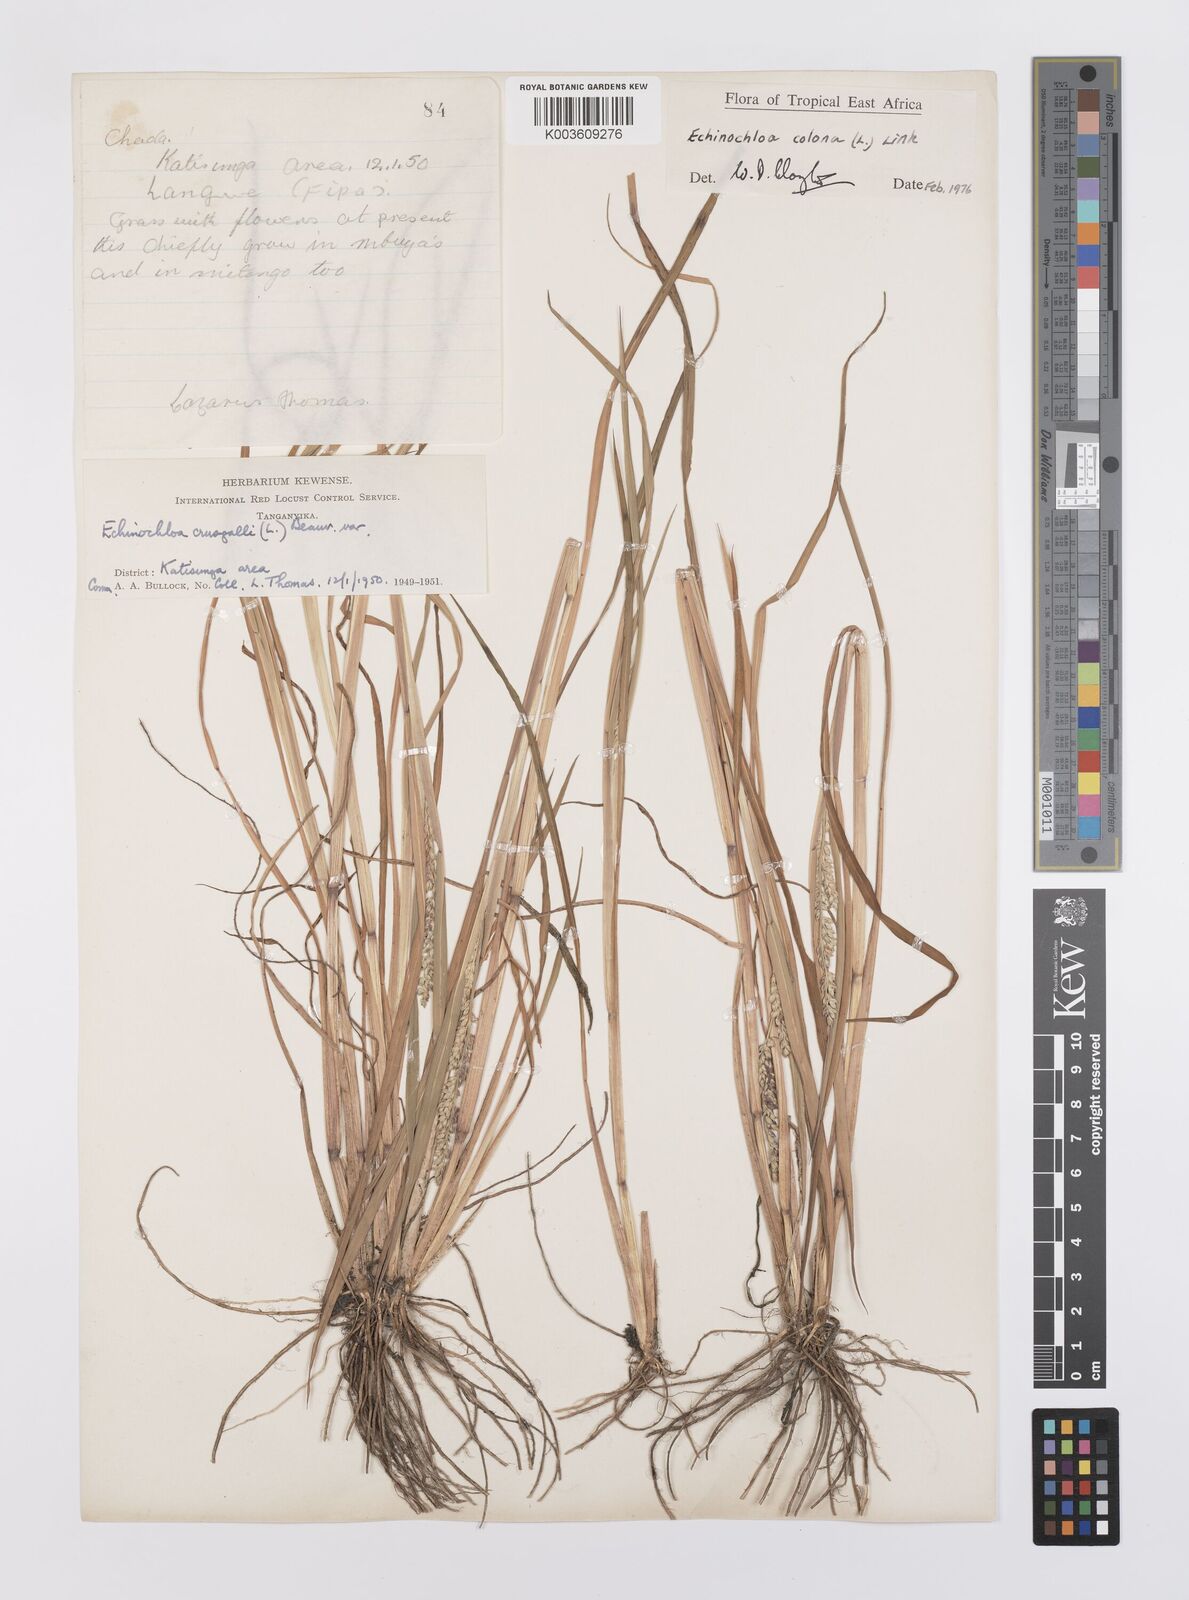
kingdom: Plantae
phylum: Tracheophyta
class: Liliopsida
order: Poales
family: Poaceae
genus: Echinochloa
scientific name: Echinochloa colonum
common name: Jungle rice
